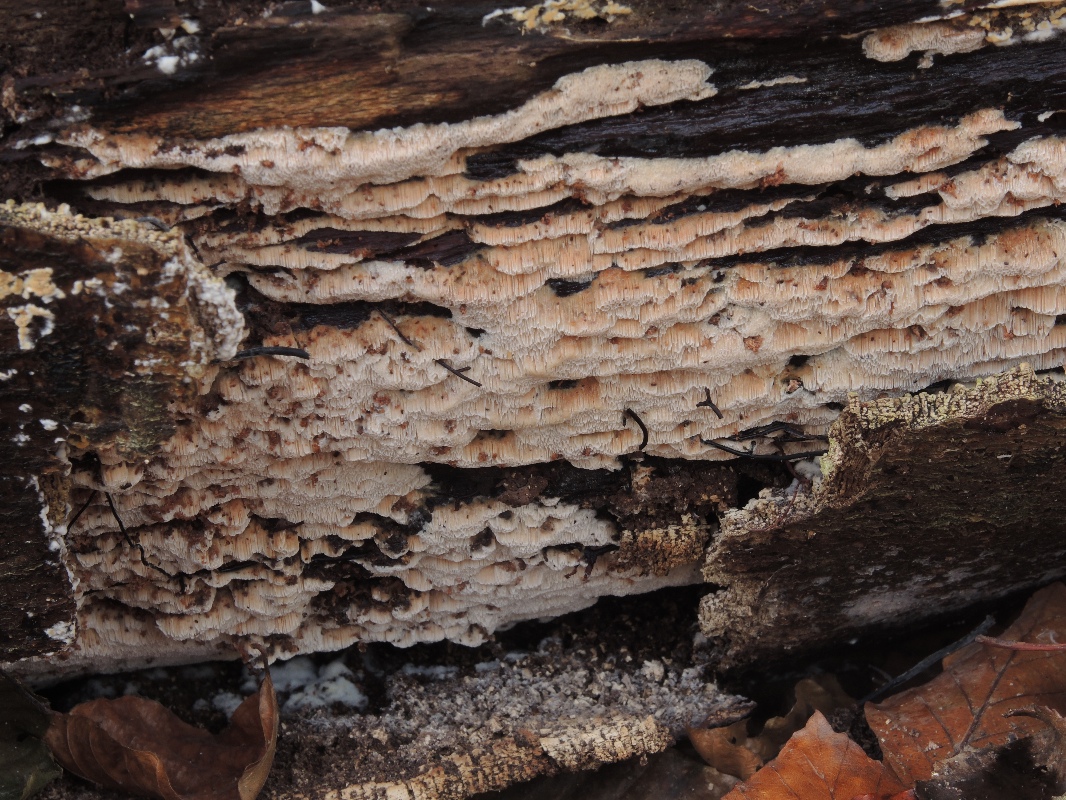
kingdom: Fungi
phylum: Basidiomycota
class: Agaricomycetes
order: Polyporales
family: Meruliaceae
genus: Mycoacia
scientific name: Mycoacia gilvescens
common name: rosa pastelporesvamp
